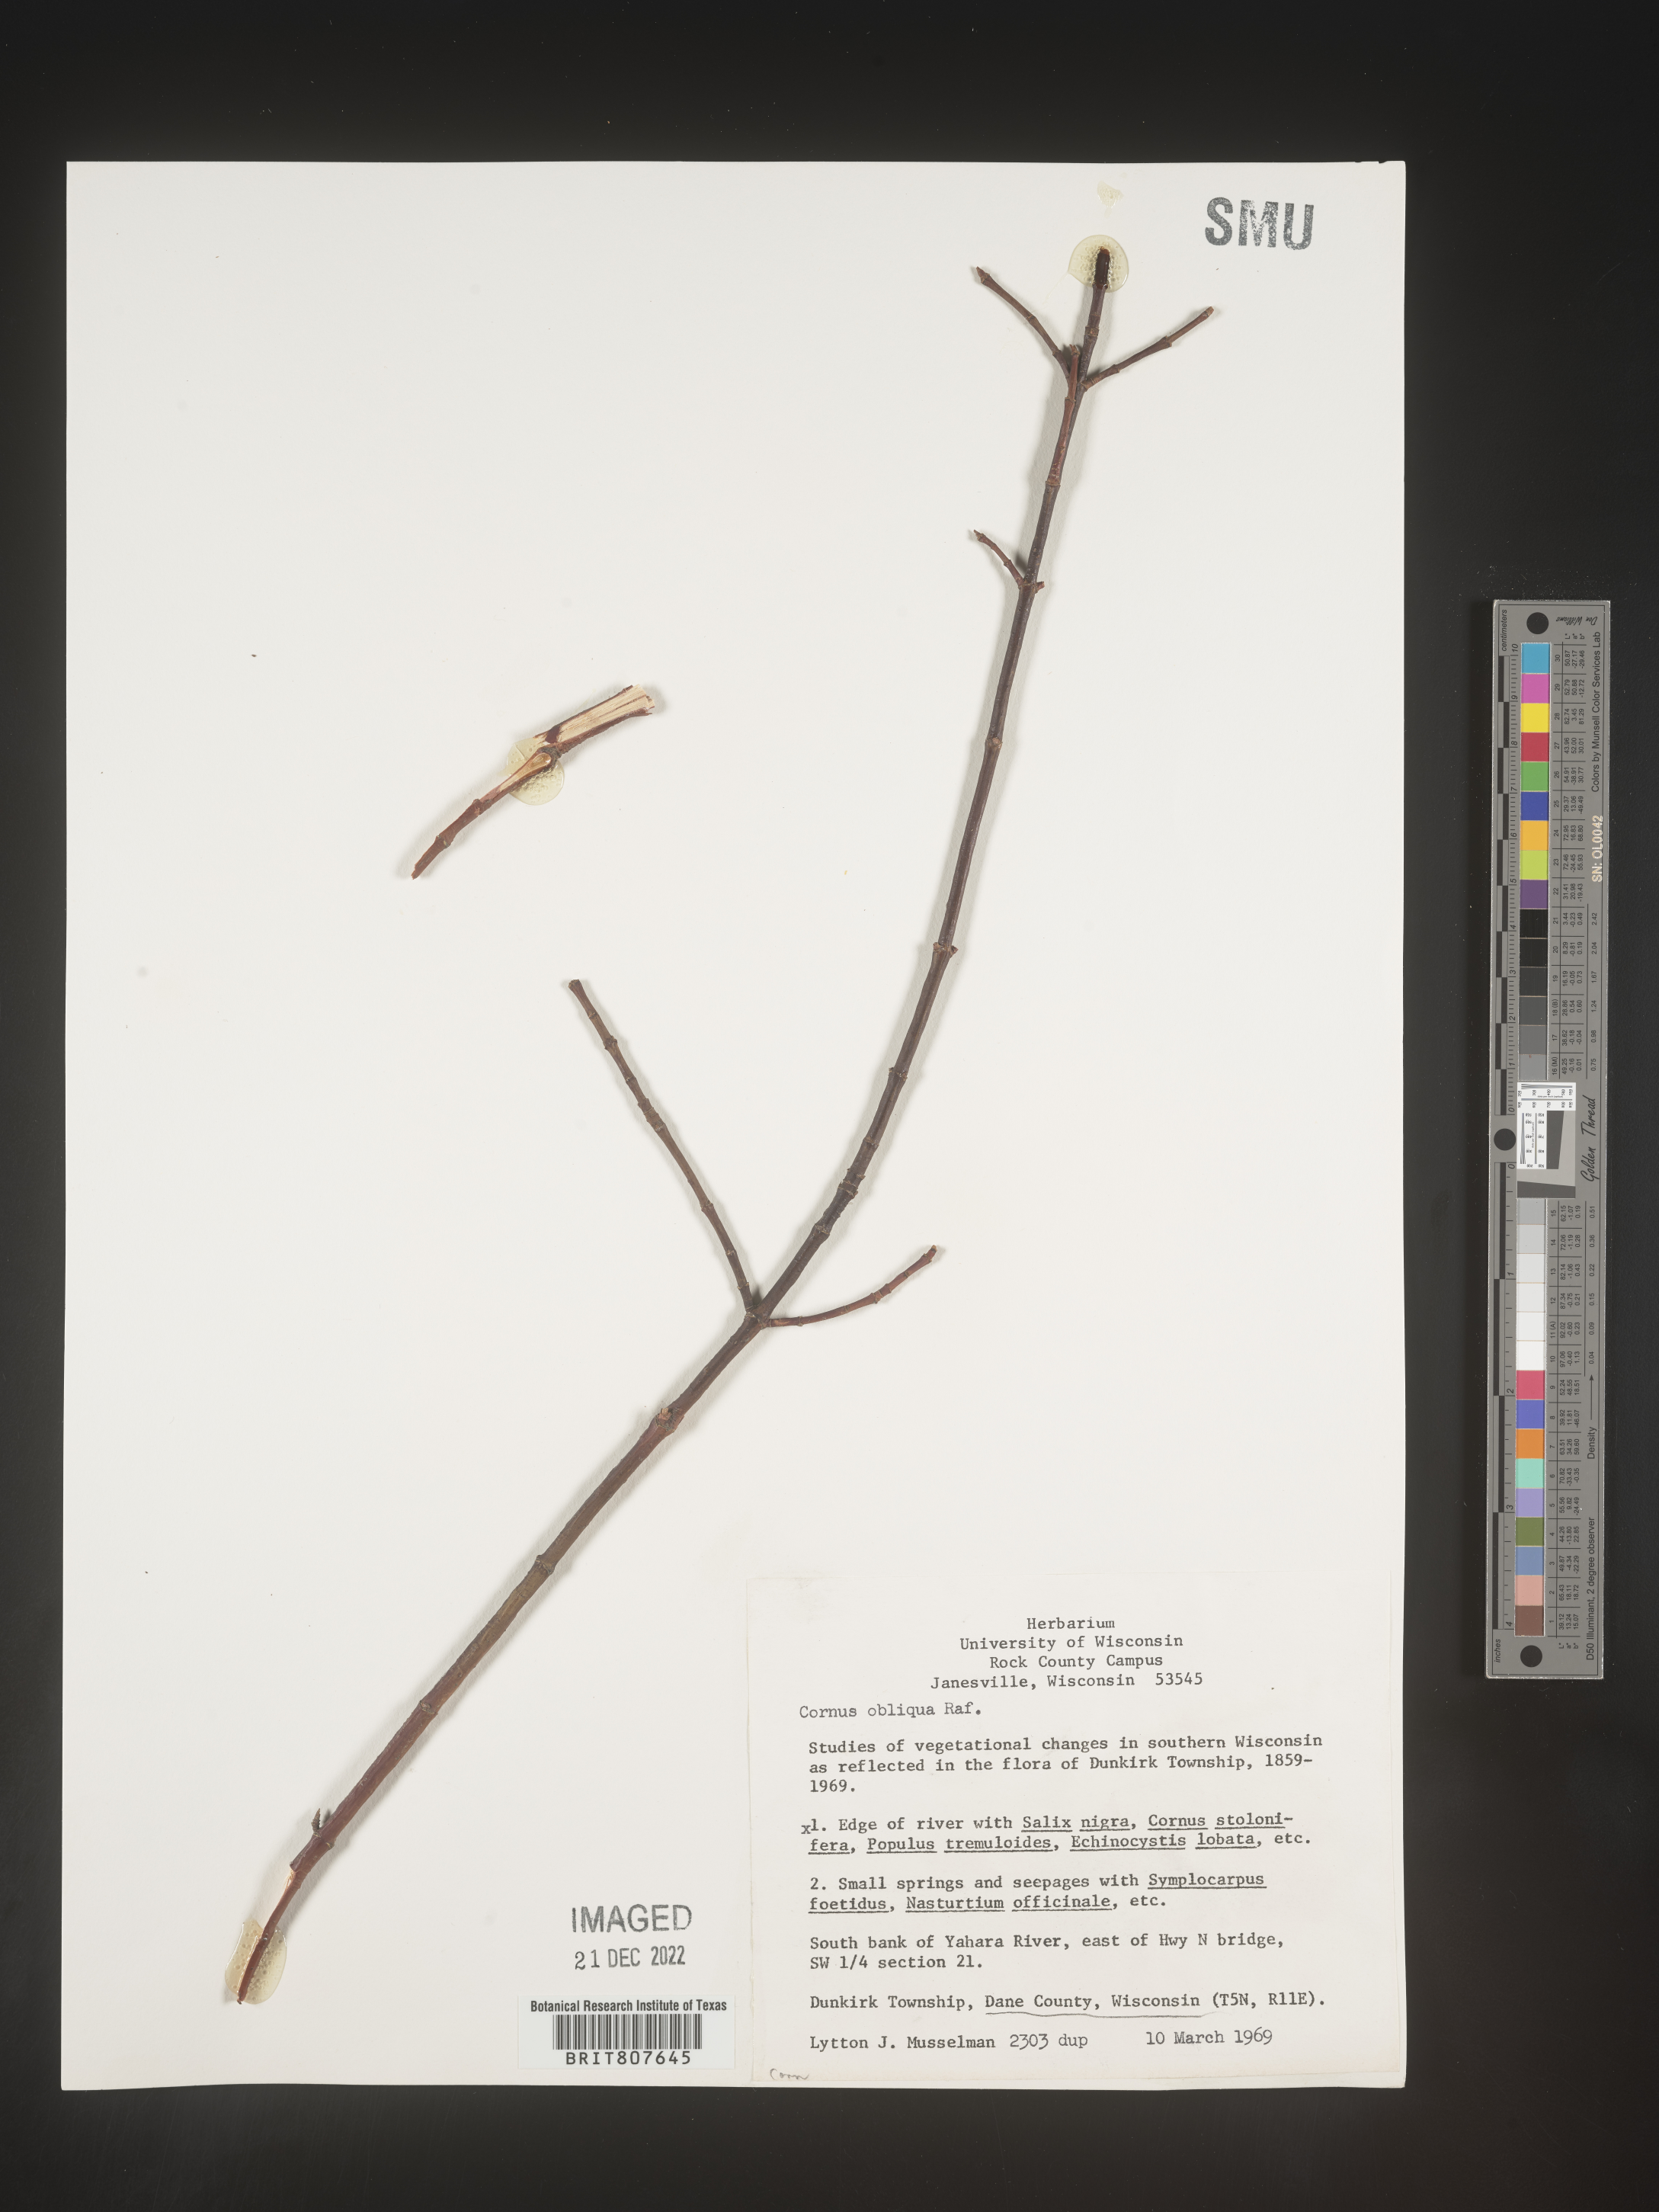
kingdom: Plantae
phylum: Tracheophyta
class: Magnoliopsida
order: Cornales
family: Cornaceae
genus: Cornus
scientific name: Cornus obliqua
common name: Pale dogwood
